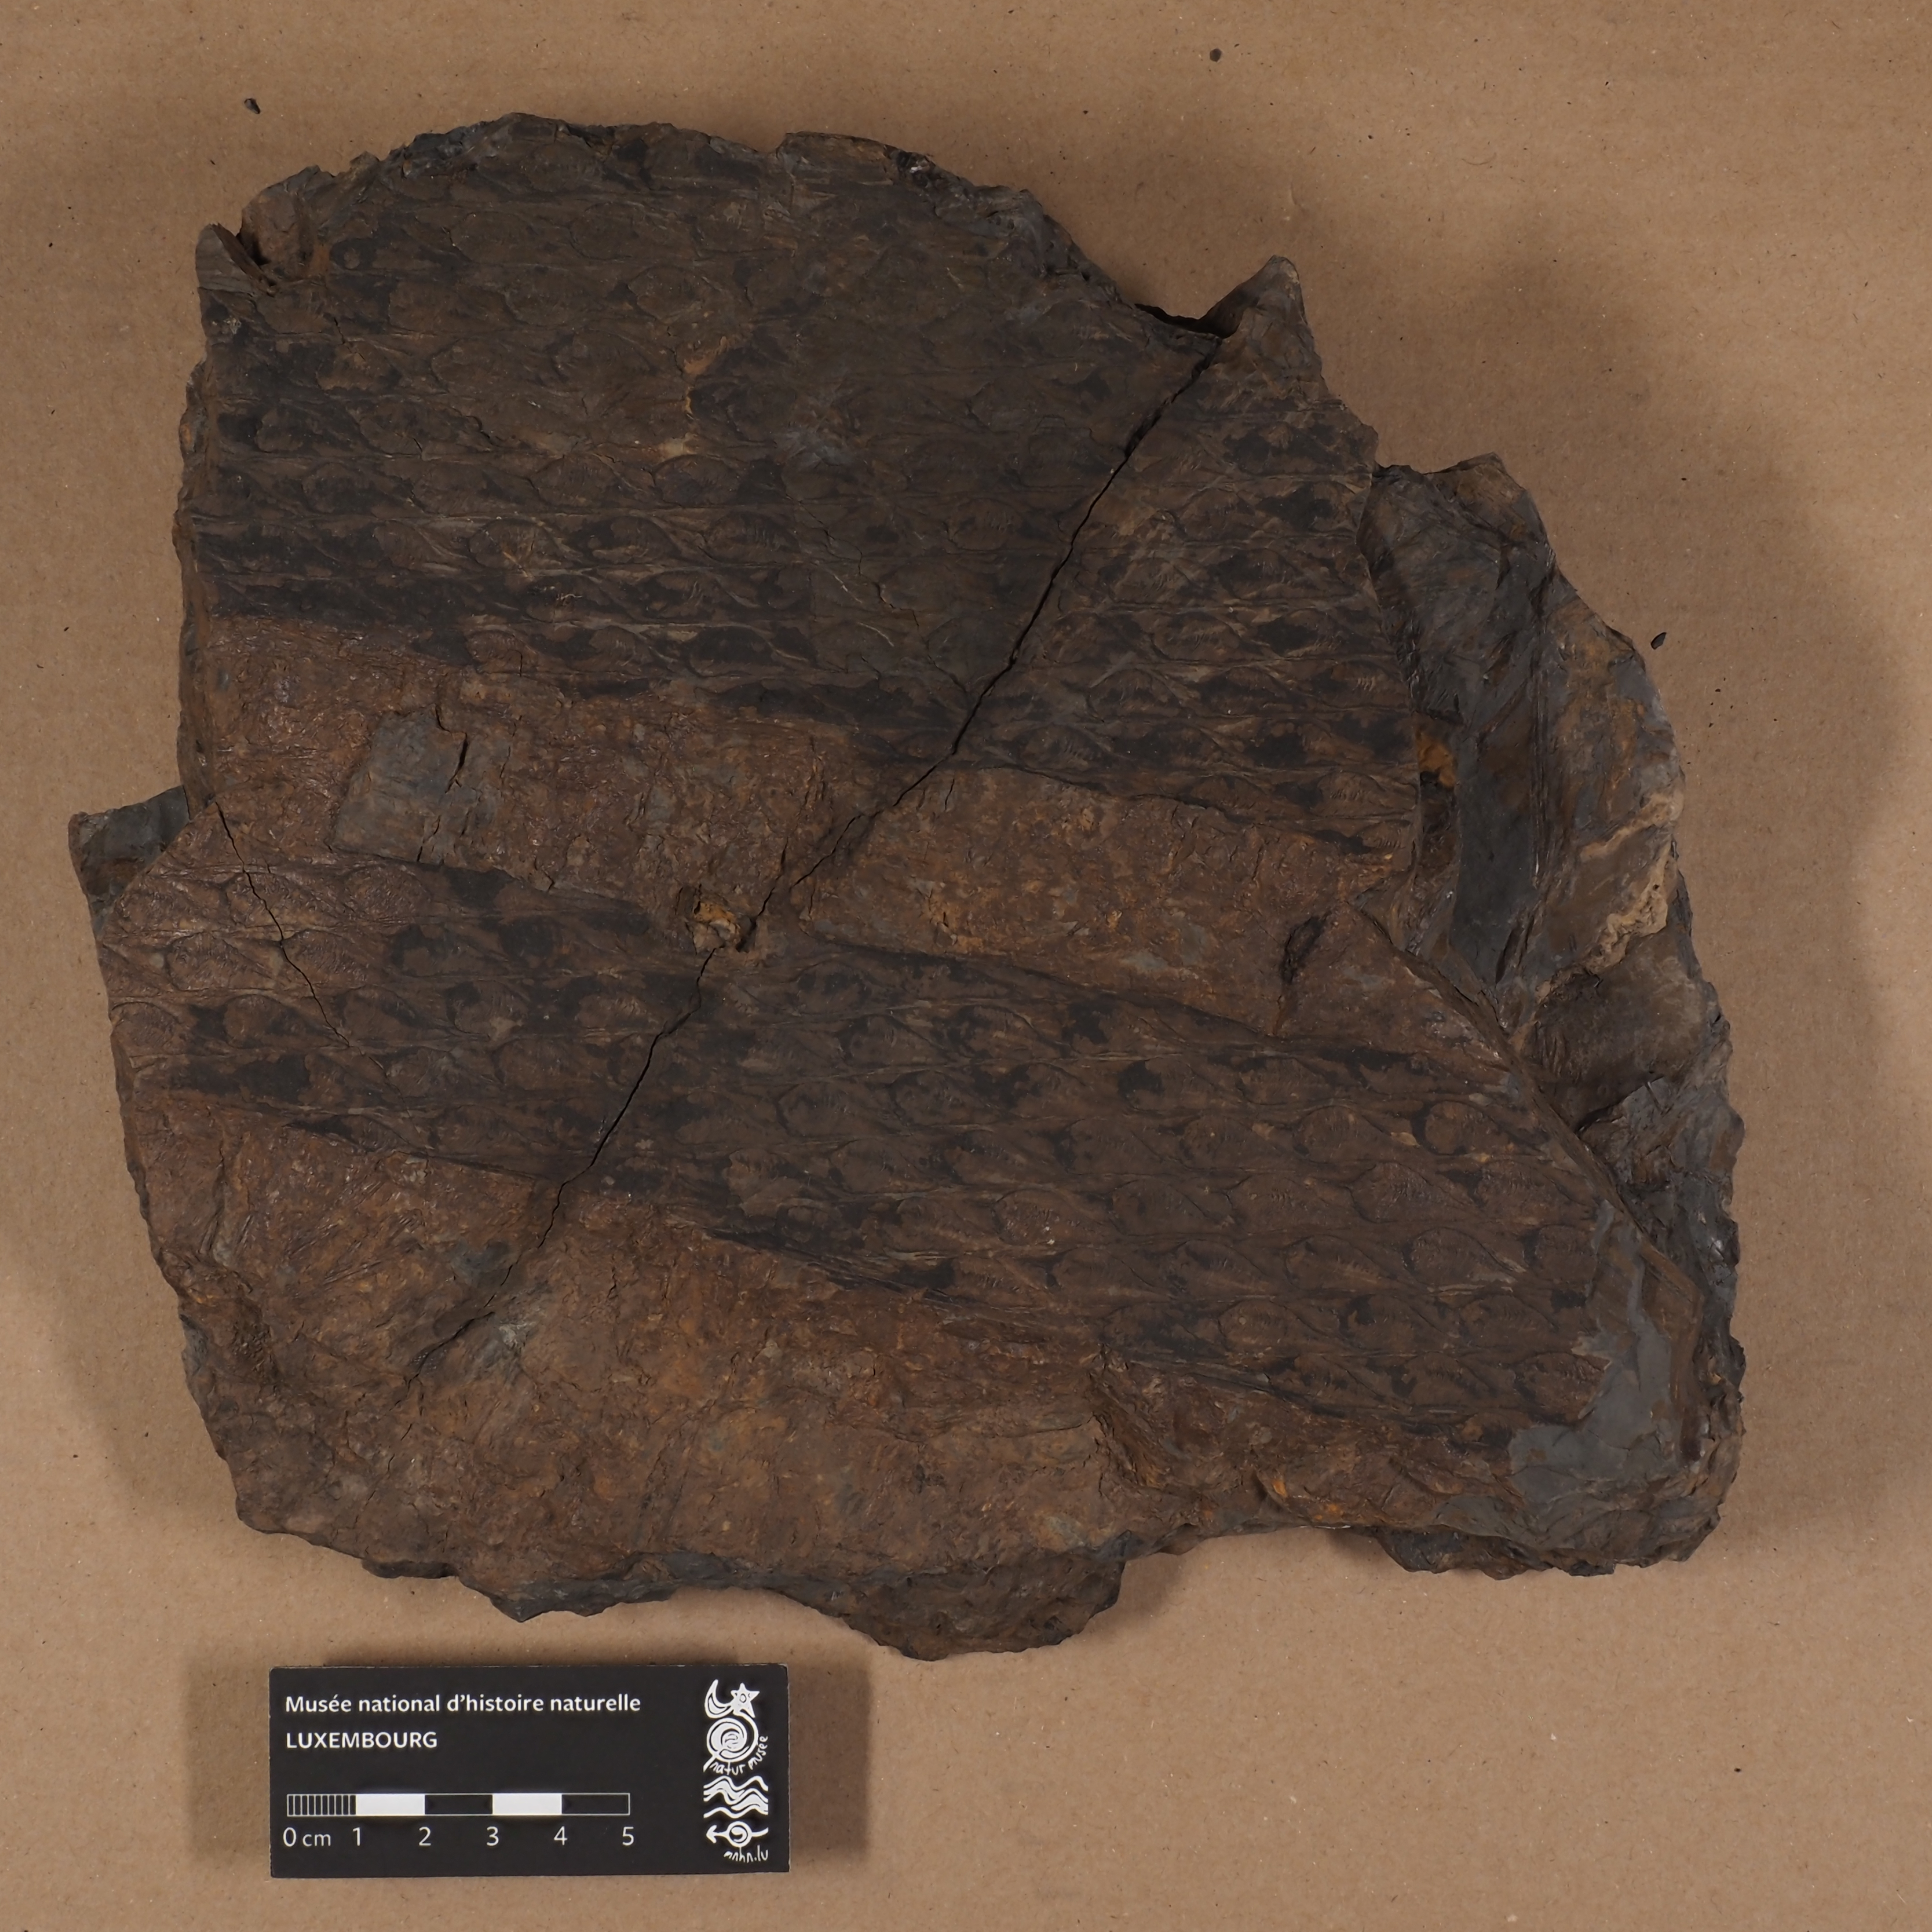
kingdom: Plantae
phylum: Tracheophyta
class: Lycopodiopsida
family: Lepidodendraceae
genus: Lepidodendron
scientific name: Lepidodendron
